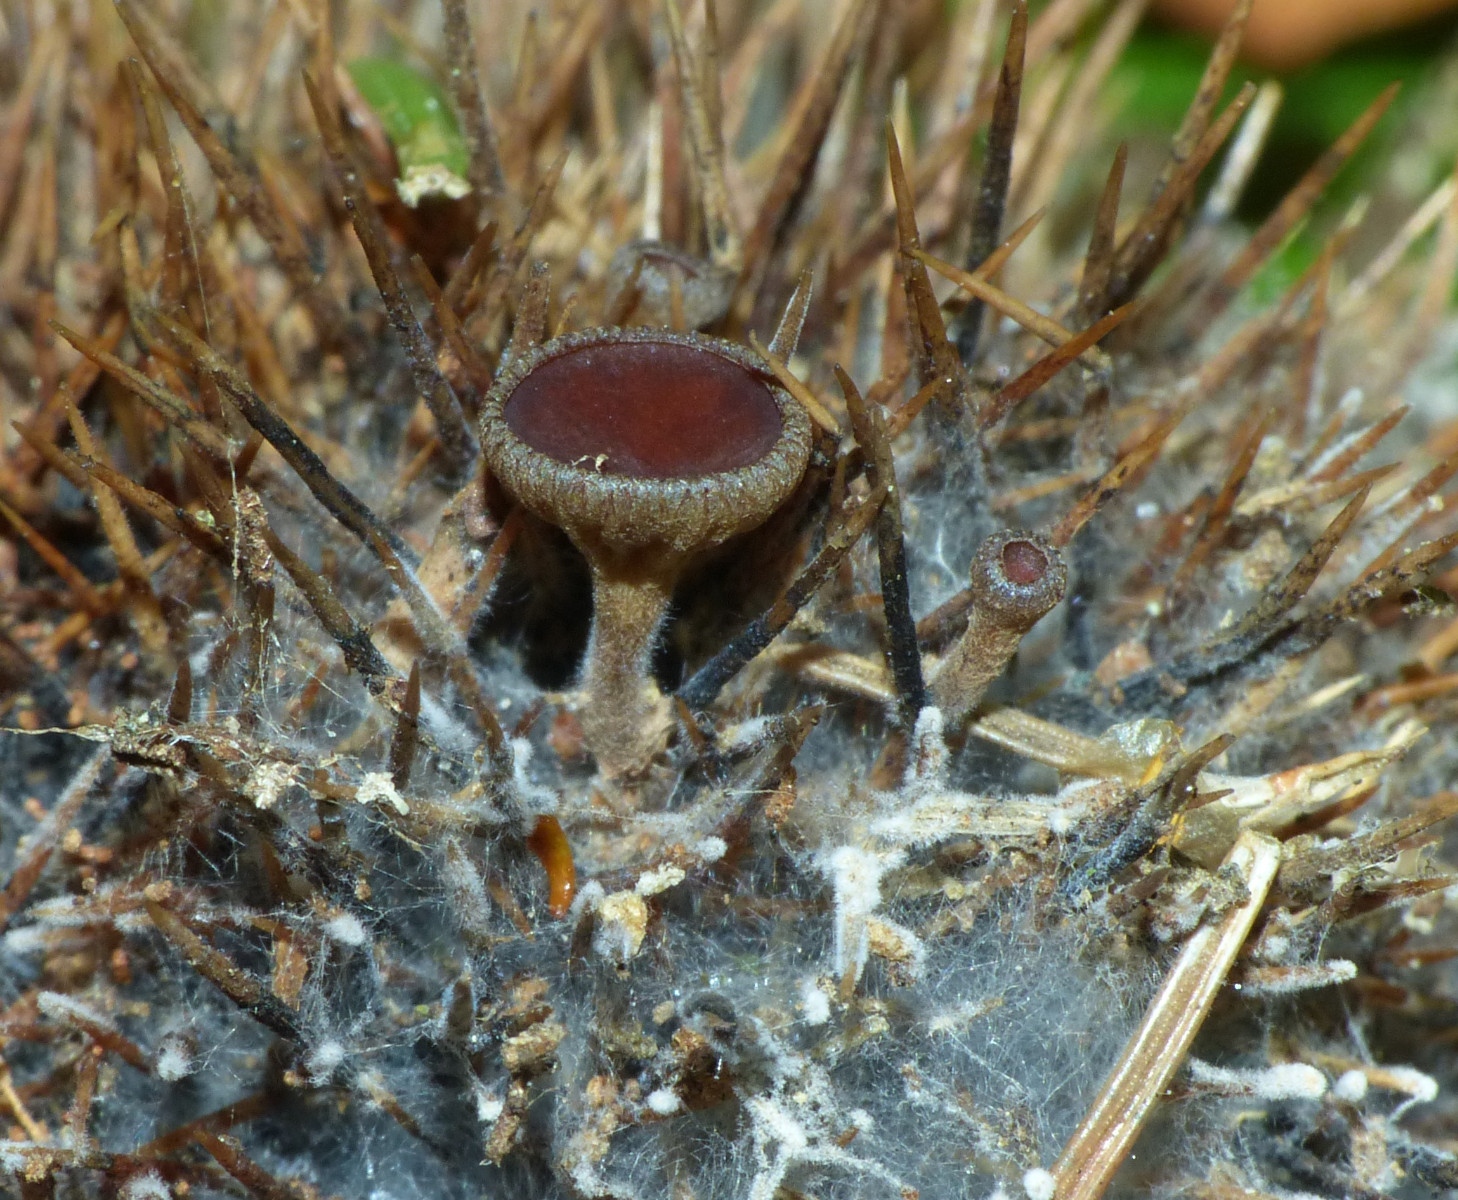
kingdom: Fungi
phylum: Ascomycota
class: Leotiomycetes
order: Helotiales
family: Rutstroemiaceae
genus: Lanzia
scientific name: Lanzia echinophila
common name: kastanie-brunskive
